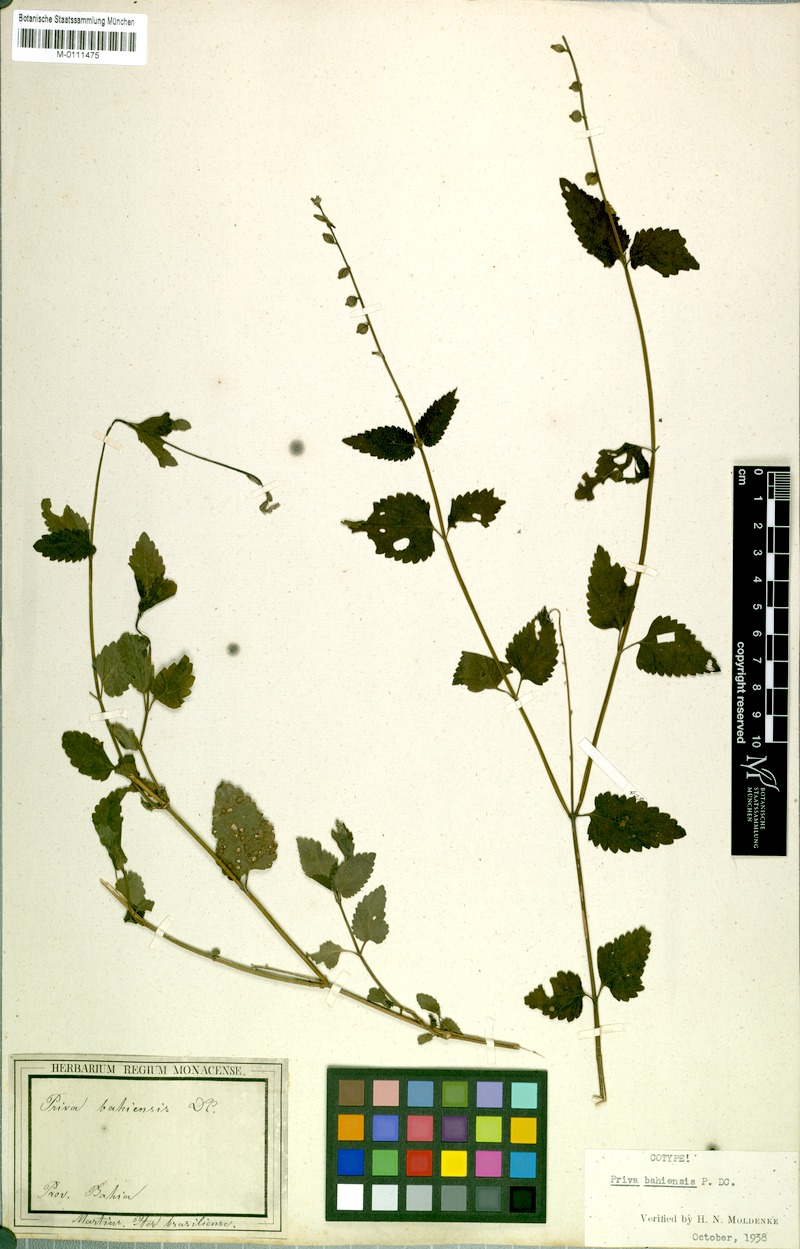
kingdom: Plantae
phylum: Tracheophyta
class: Magnoliopsida
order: Lamiales
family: Verbenaceae
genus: Priva
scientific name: Priva bahiensis
